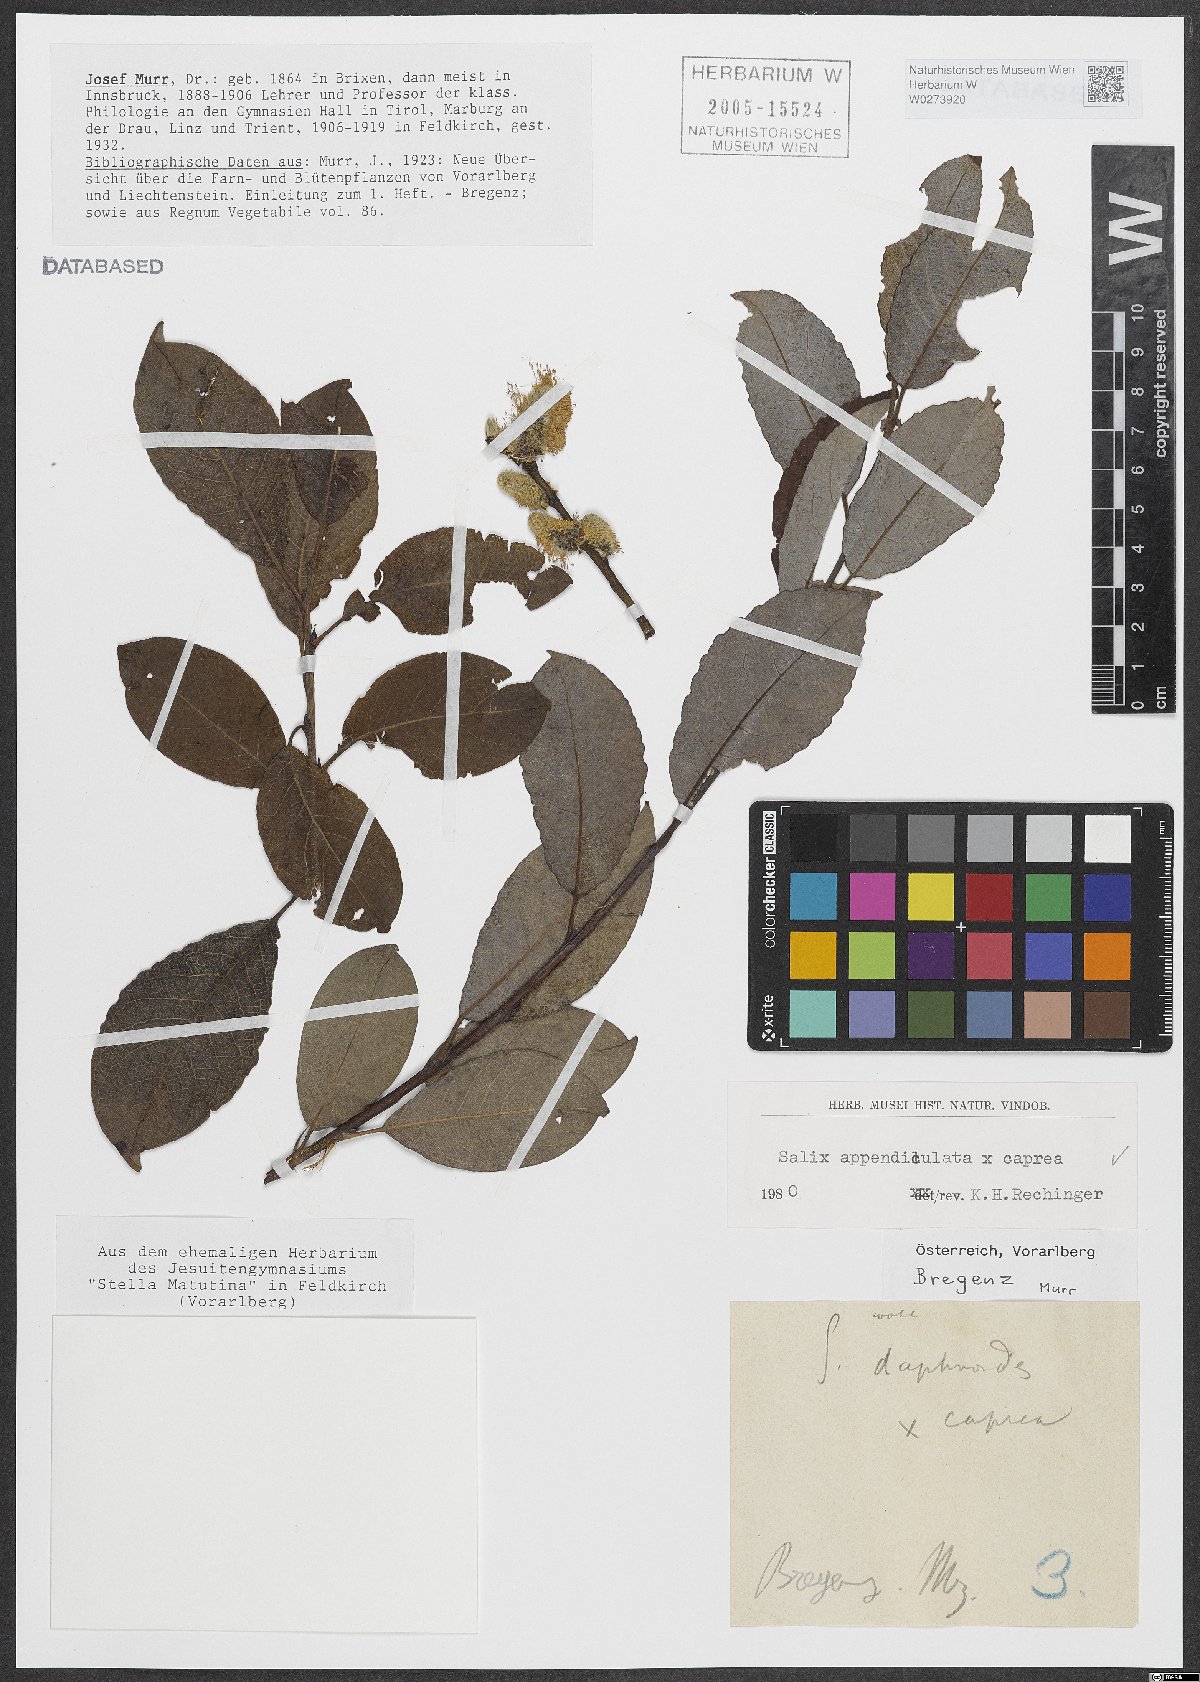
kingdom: Plantae
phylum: Tracheophyta
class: Magnoliopsida
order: Malpighiales
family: Salicaceae
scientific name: Salicaceae
